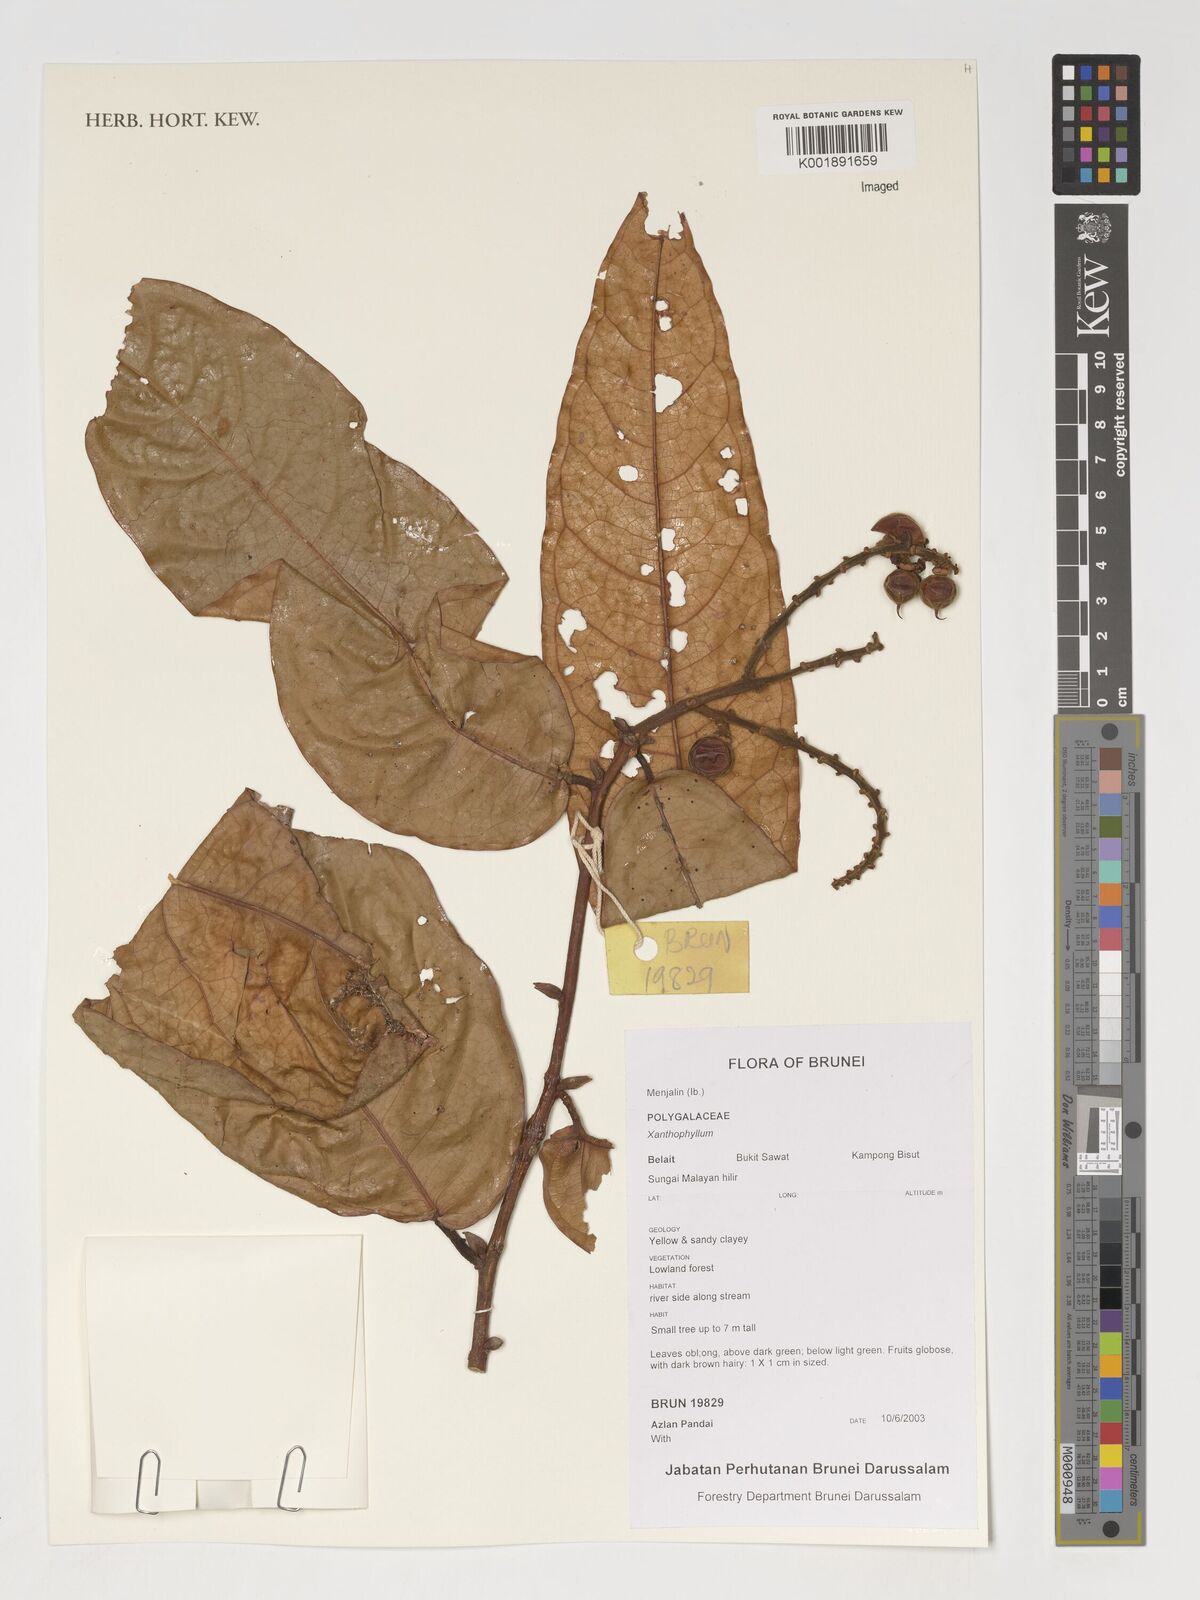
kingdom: Plantae
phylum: Tracheophyta
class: Magnoliopsida
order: Fabales
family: Polygalaceae
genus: Xanthophyllum
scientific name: Xanthophyllum
